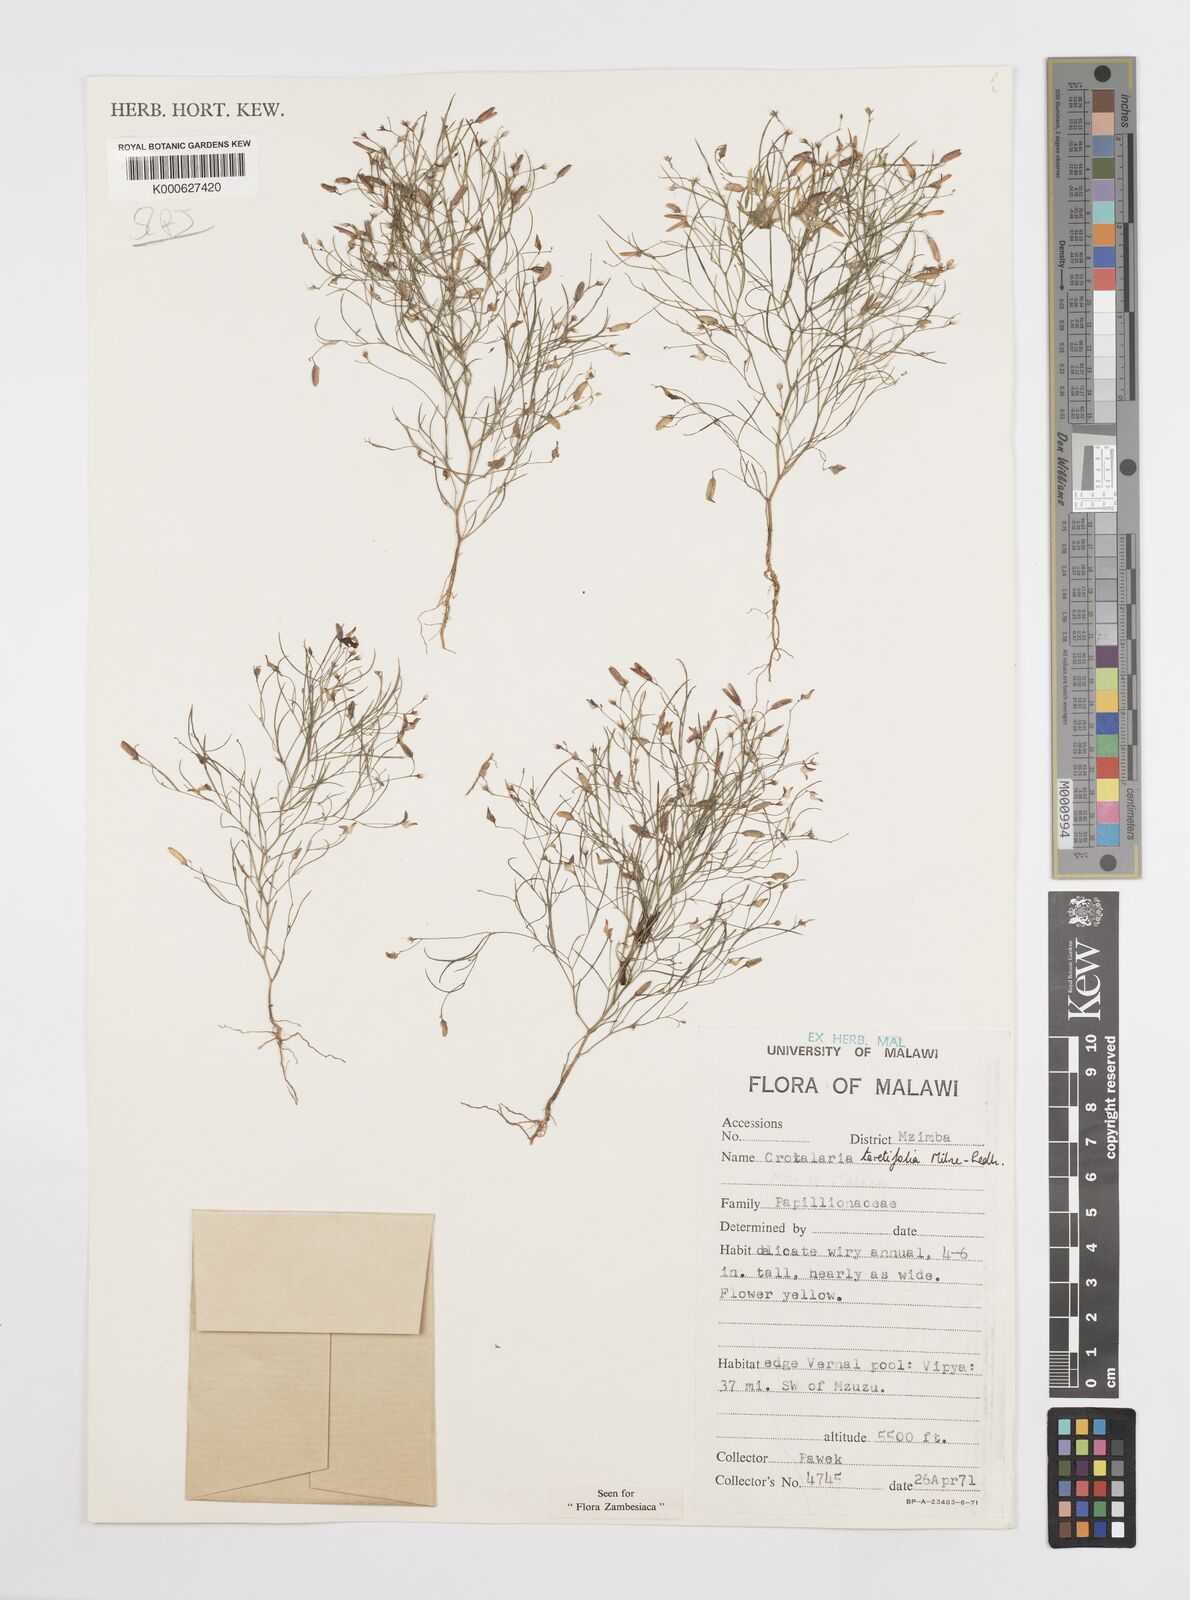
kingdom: Plantae
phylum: Tracheophyta
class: Magnoliopsida
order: Fabales
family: Fabaceae
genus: Crotalaria
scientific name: Crotalaria teretifolia
